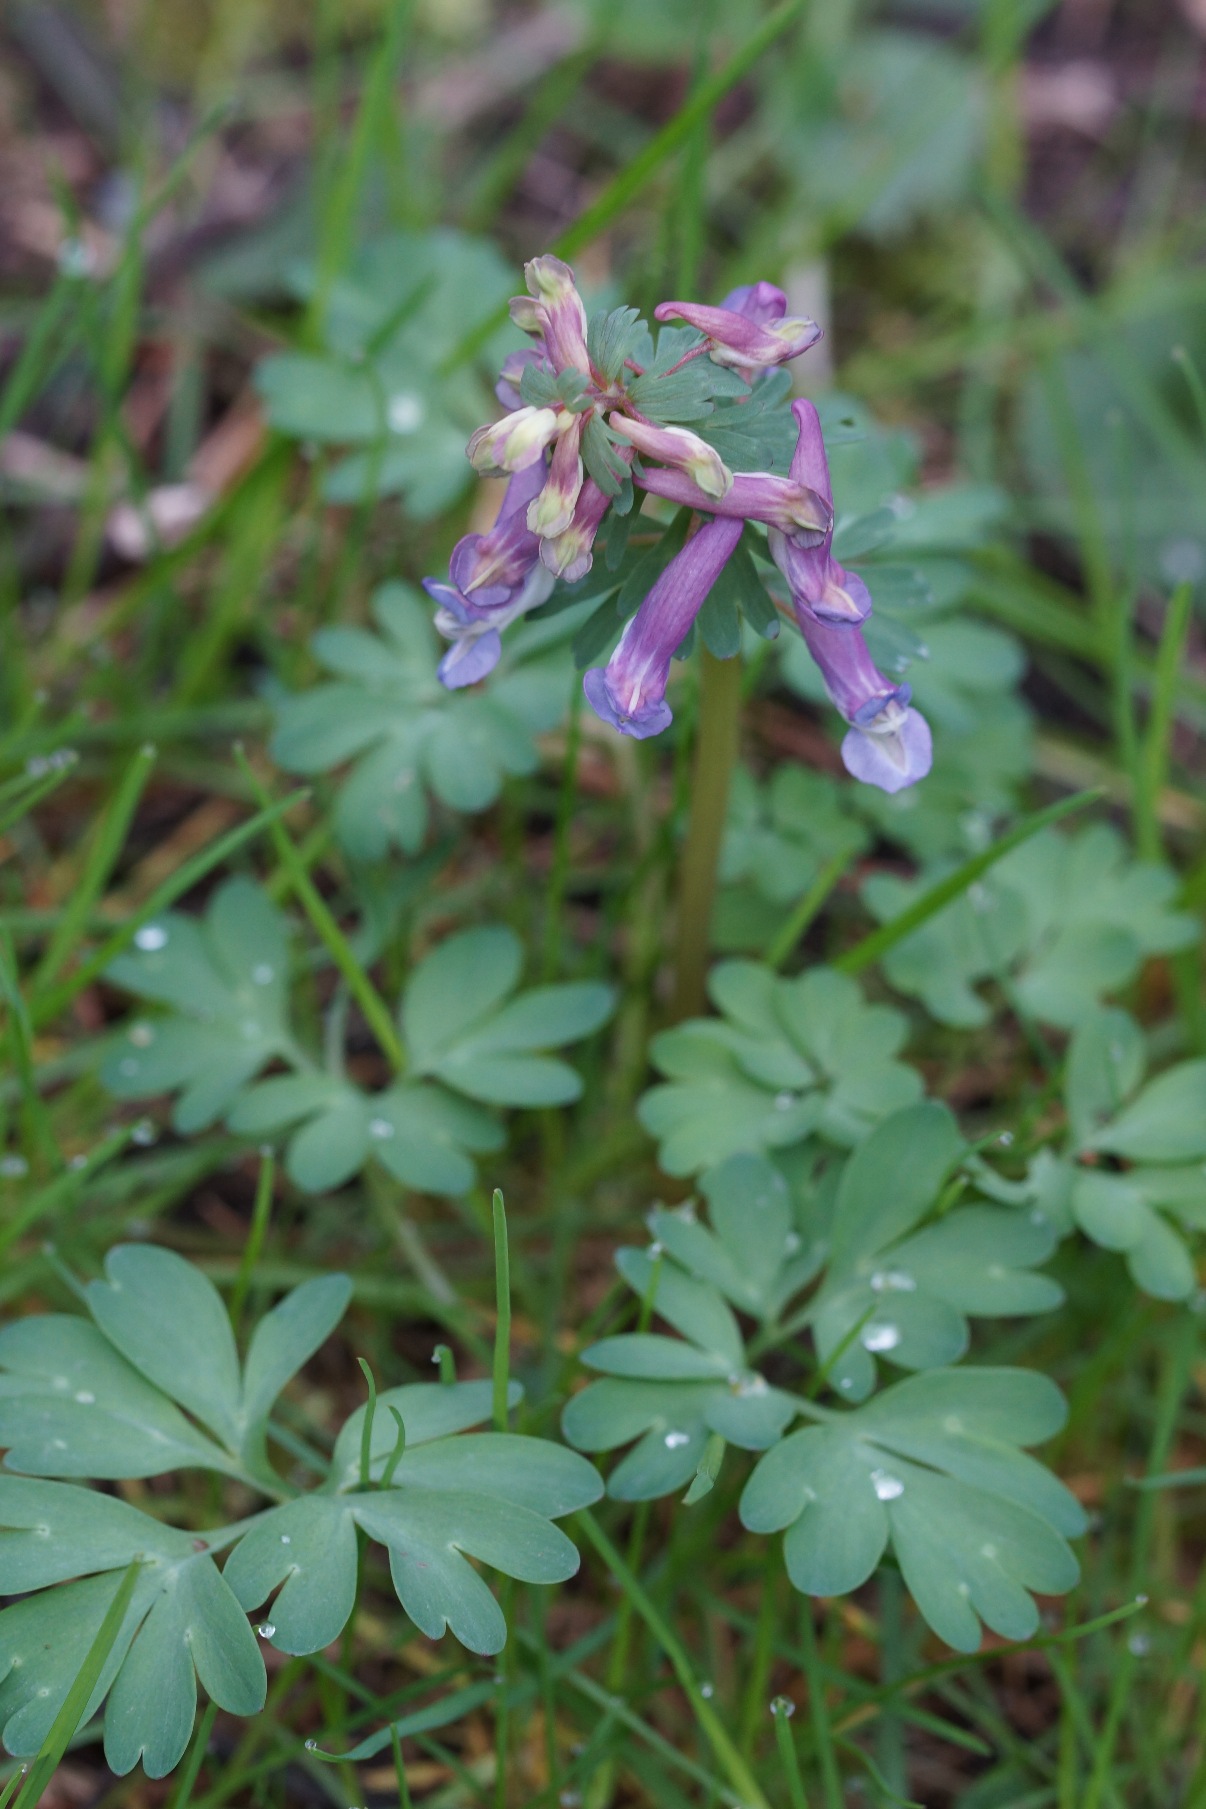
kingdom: Plantae
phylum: Tracheophyta
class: Magnoliopsida
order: Ranunculales
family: Papaveraceae
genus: Corydalis
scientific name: Corydalis solida
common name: Langstilket lærkespore
